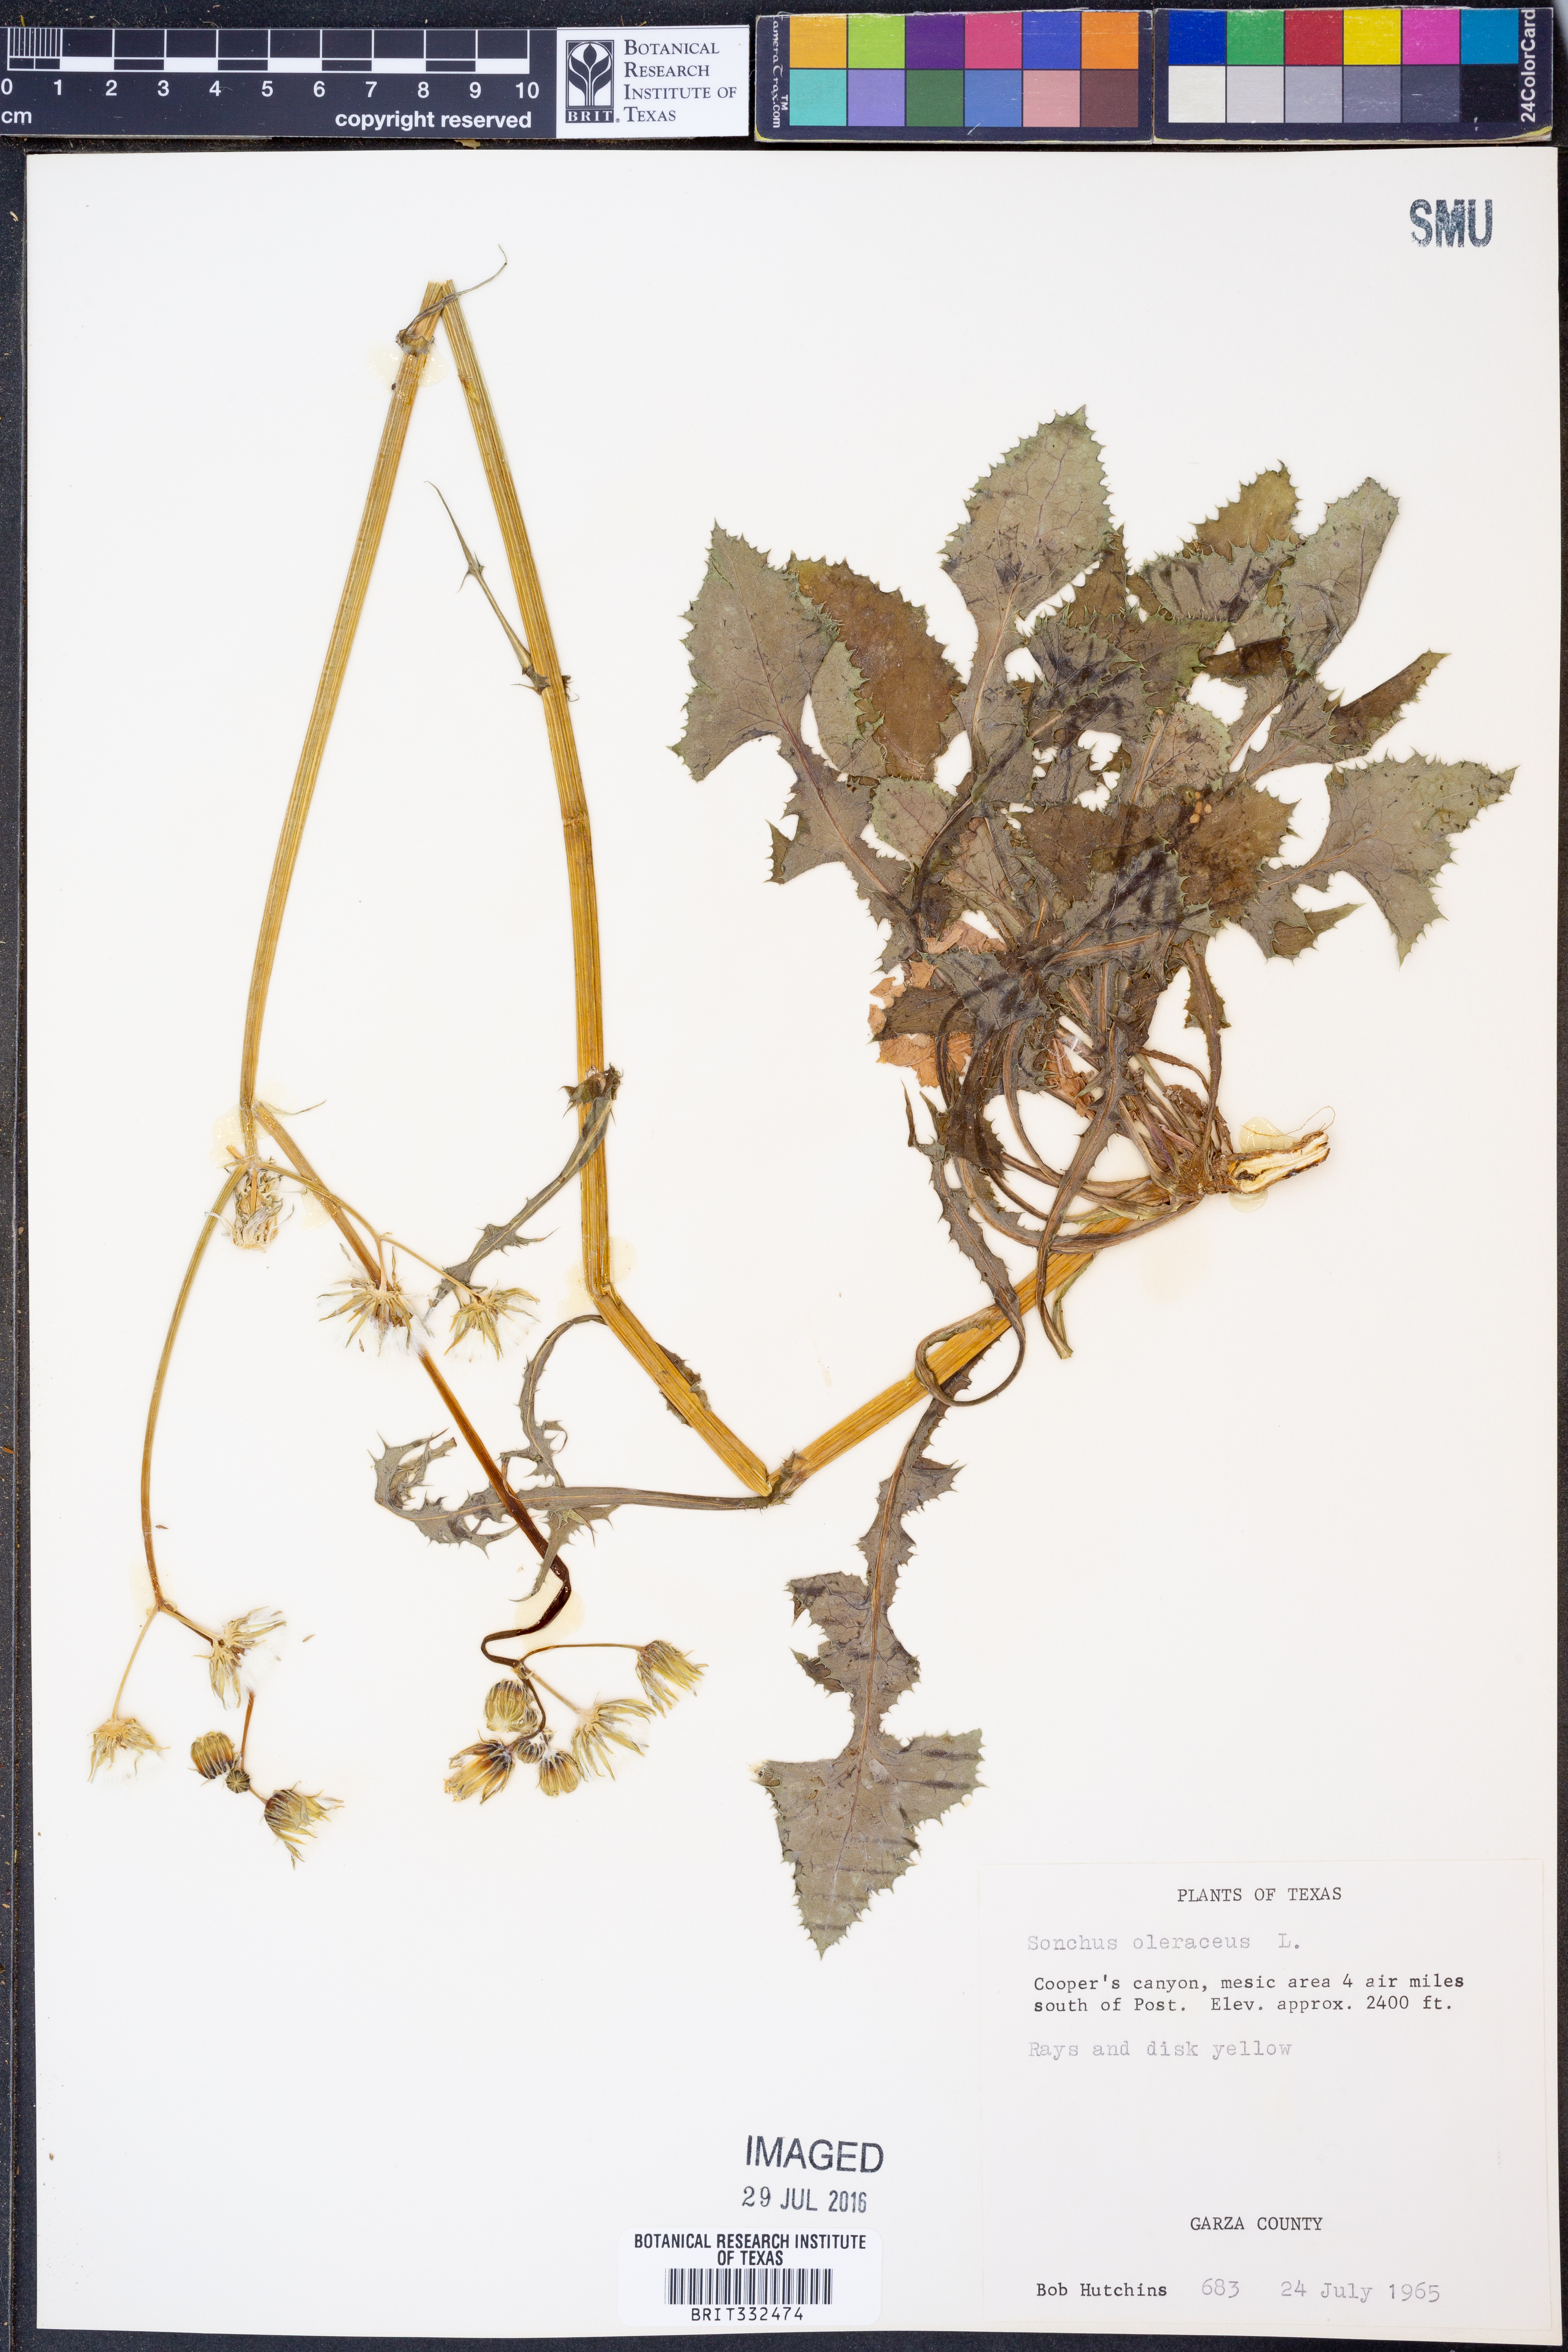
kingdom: Plantae
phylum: Tracheophyta
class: Magnoliopsida
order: Asterales
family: Asteraceae
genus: Sonchus
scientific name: Sonchus oleraceus
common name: Common sowthistle
